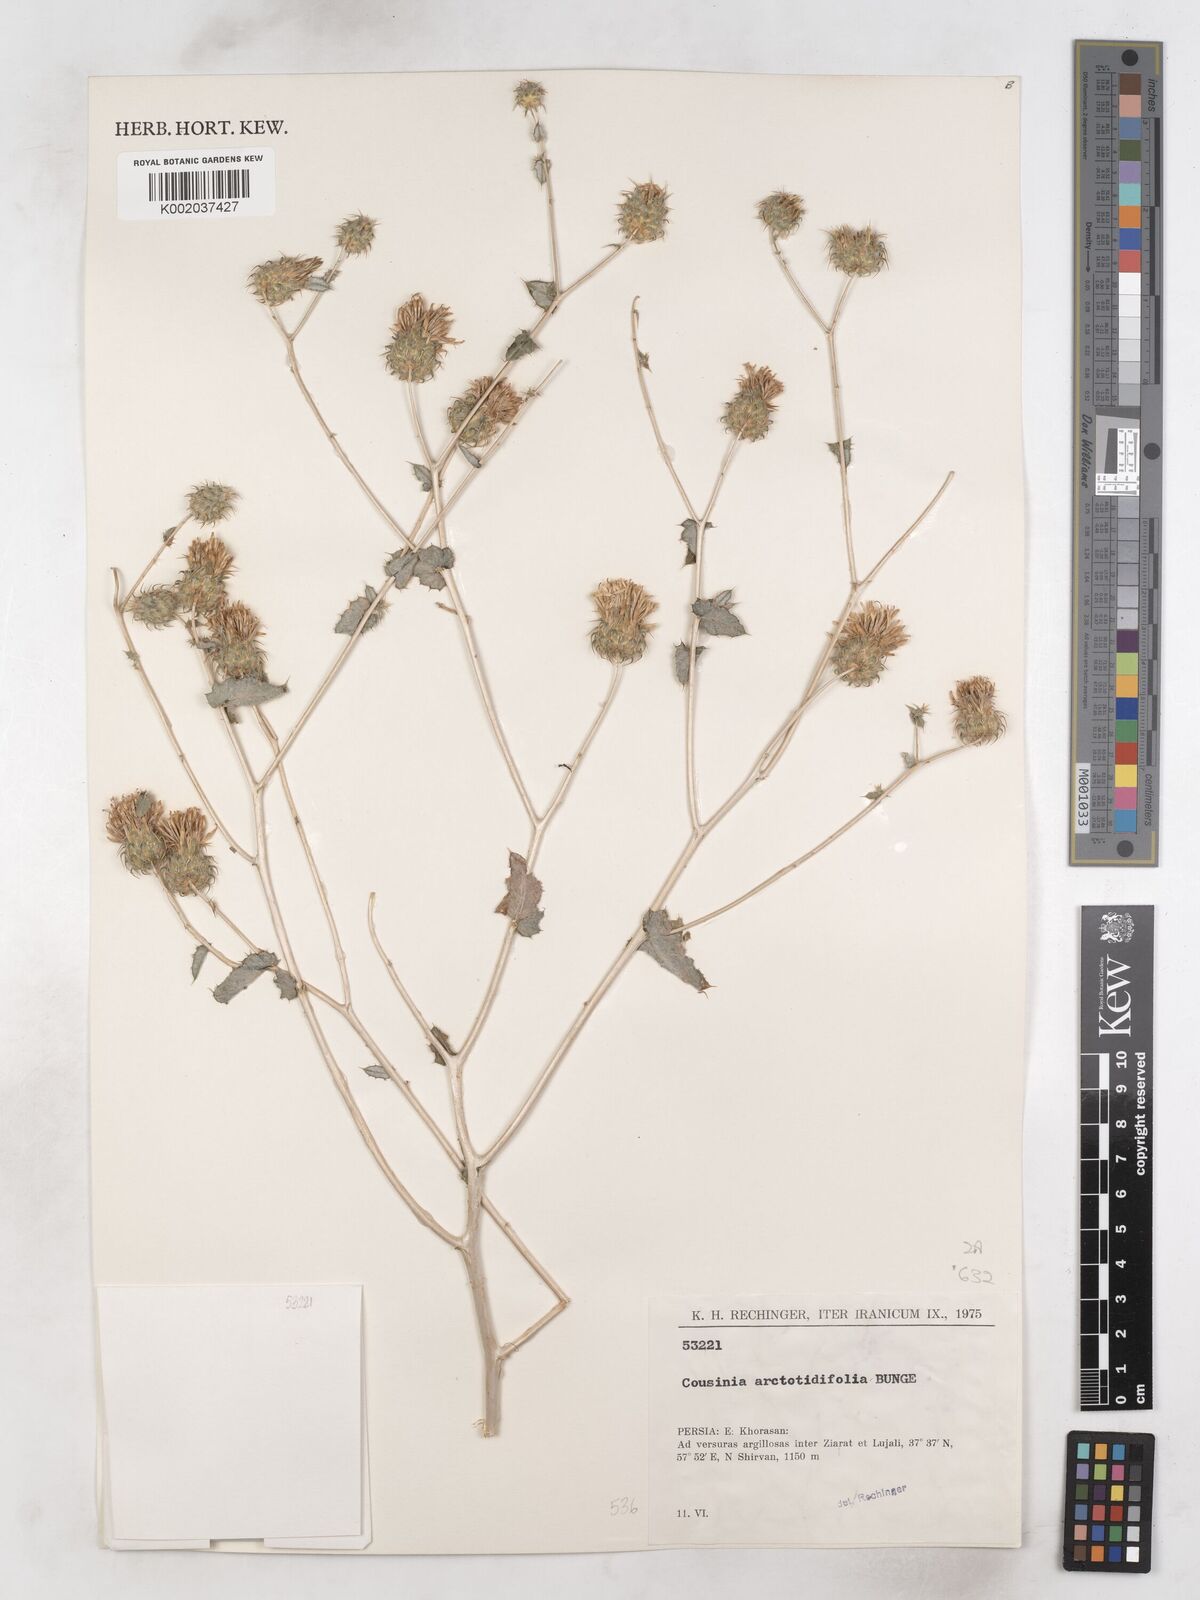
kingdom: Plantae
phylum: Tracheophyta
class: Magnoliopsida
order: Asterales
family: Asteraceae
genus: Cousinia
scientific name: Cousinia arctotidifolia
